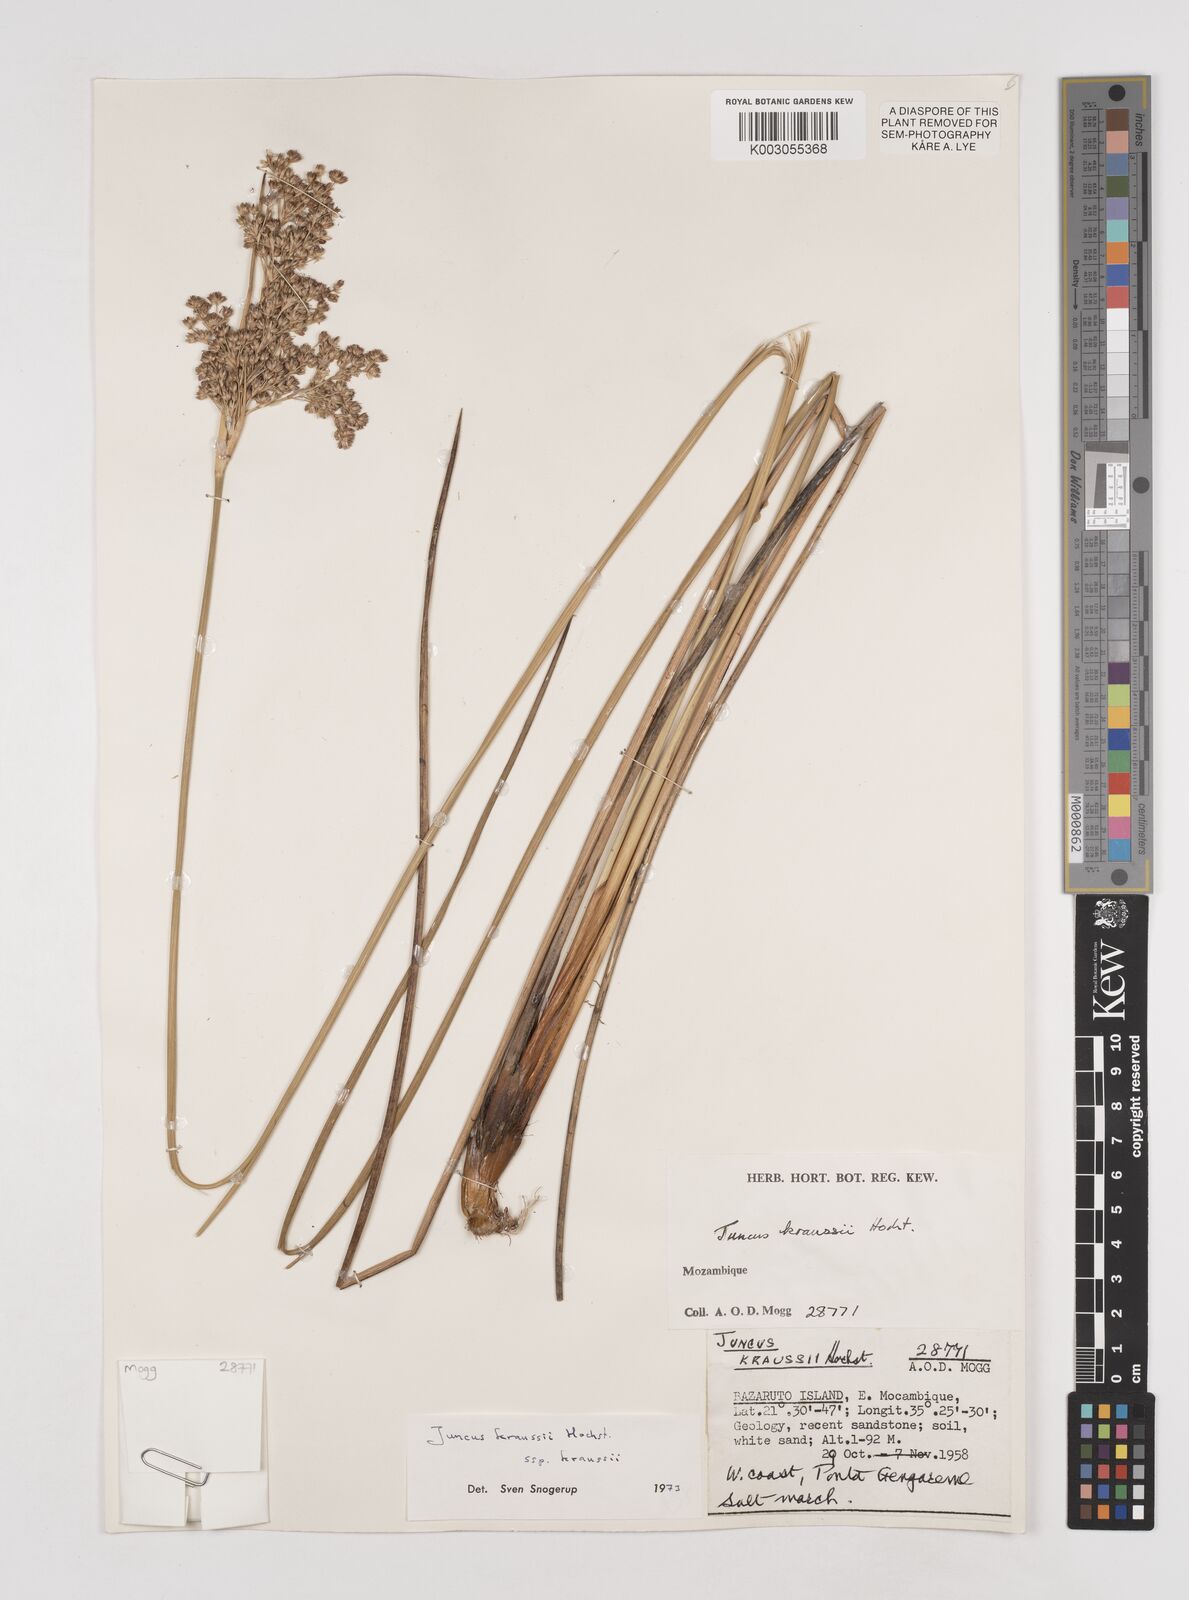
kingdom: Plantae
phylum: Tracheophyta
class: Liliopsida
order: Poales
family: Juncaceae
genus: Juncus
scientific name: Juncus kraussii
